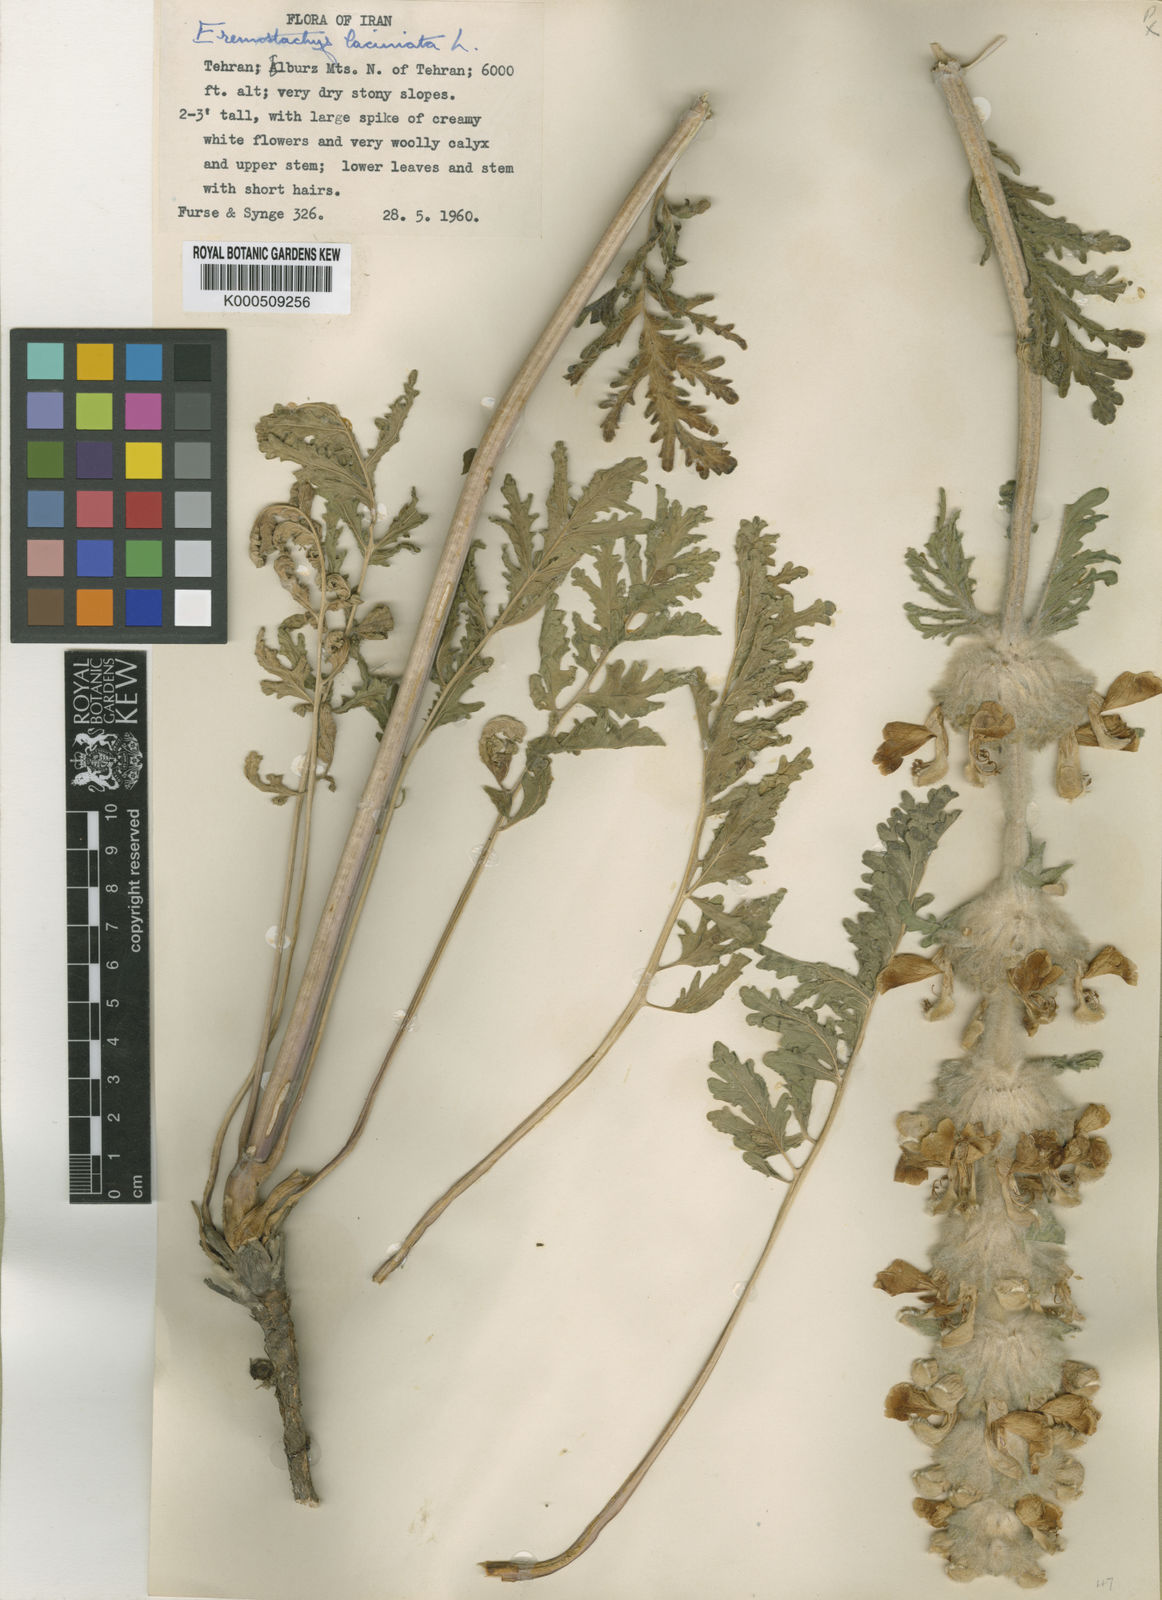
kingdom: Plantae
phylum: Tracheophyta
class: Magnoliopsida
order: Lamiales
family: Lamiaceae
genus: Phlomoides
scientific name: Phlomoides laciniata
